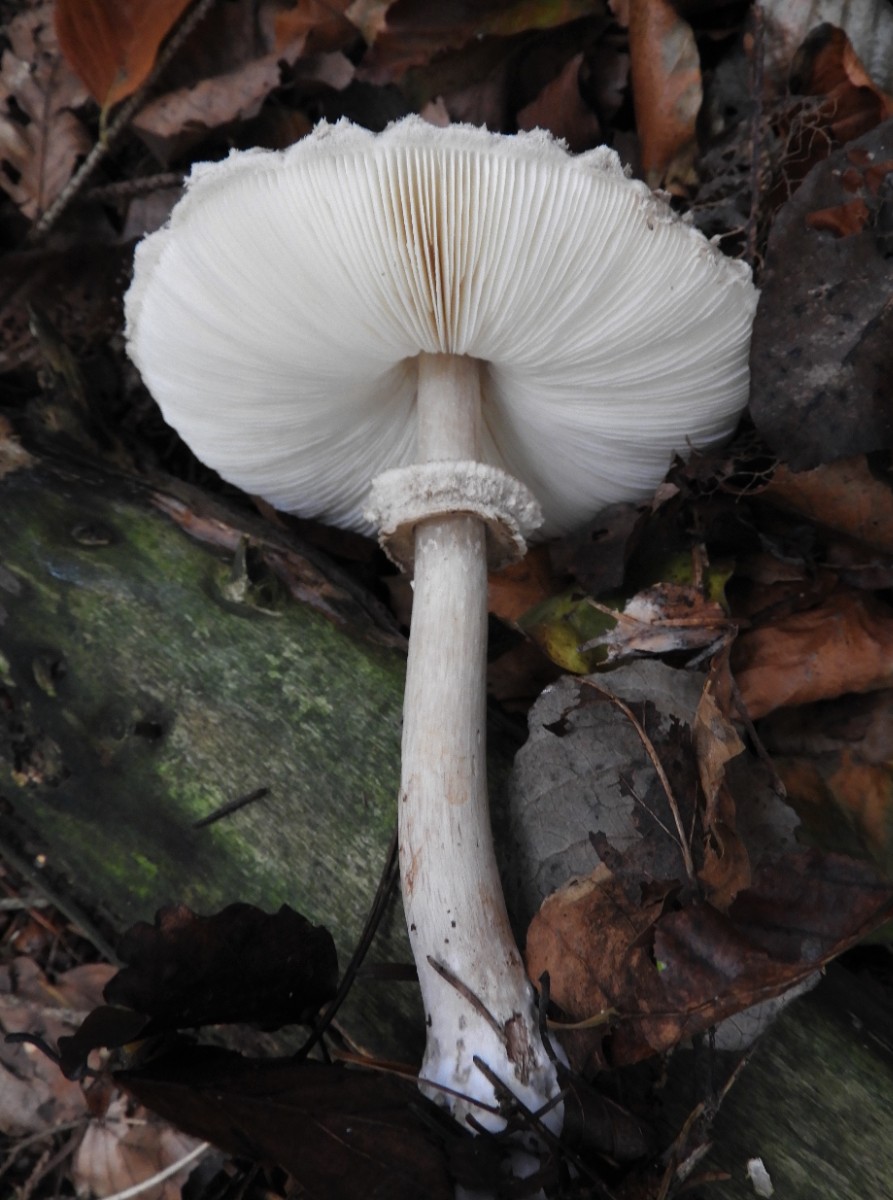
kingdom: Fungi
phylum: Basidiomycota
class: Agaricomycetes
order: Agaricales
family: Agaricaceae
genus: Chlorophyllum
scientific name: Chlorophyllum olivieri
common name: almindelig rabarberhat
